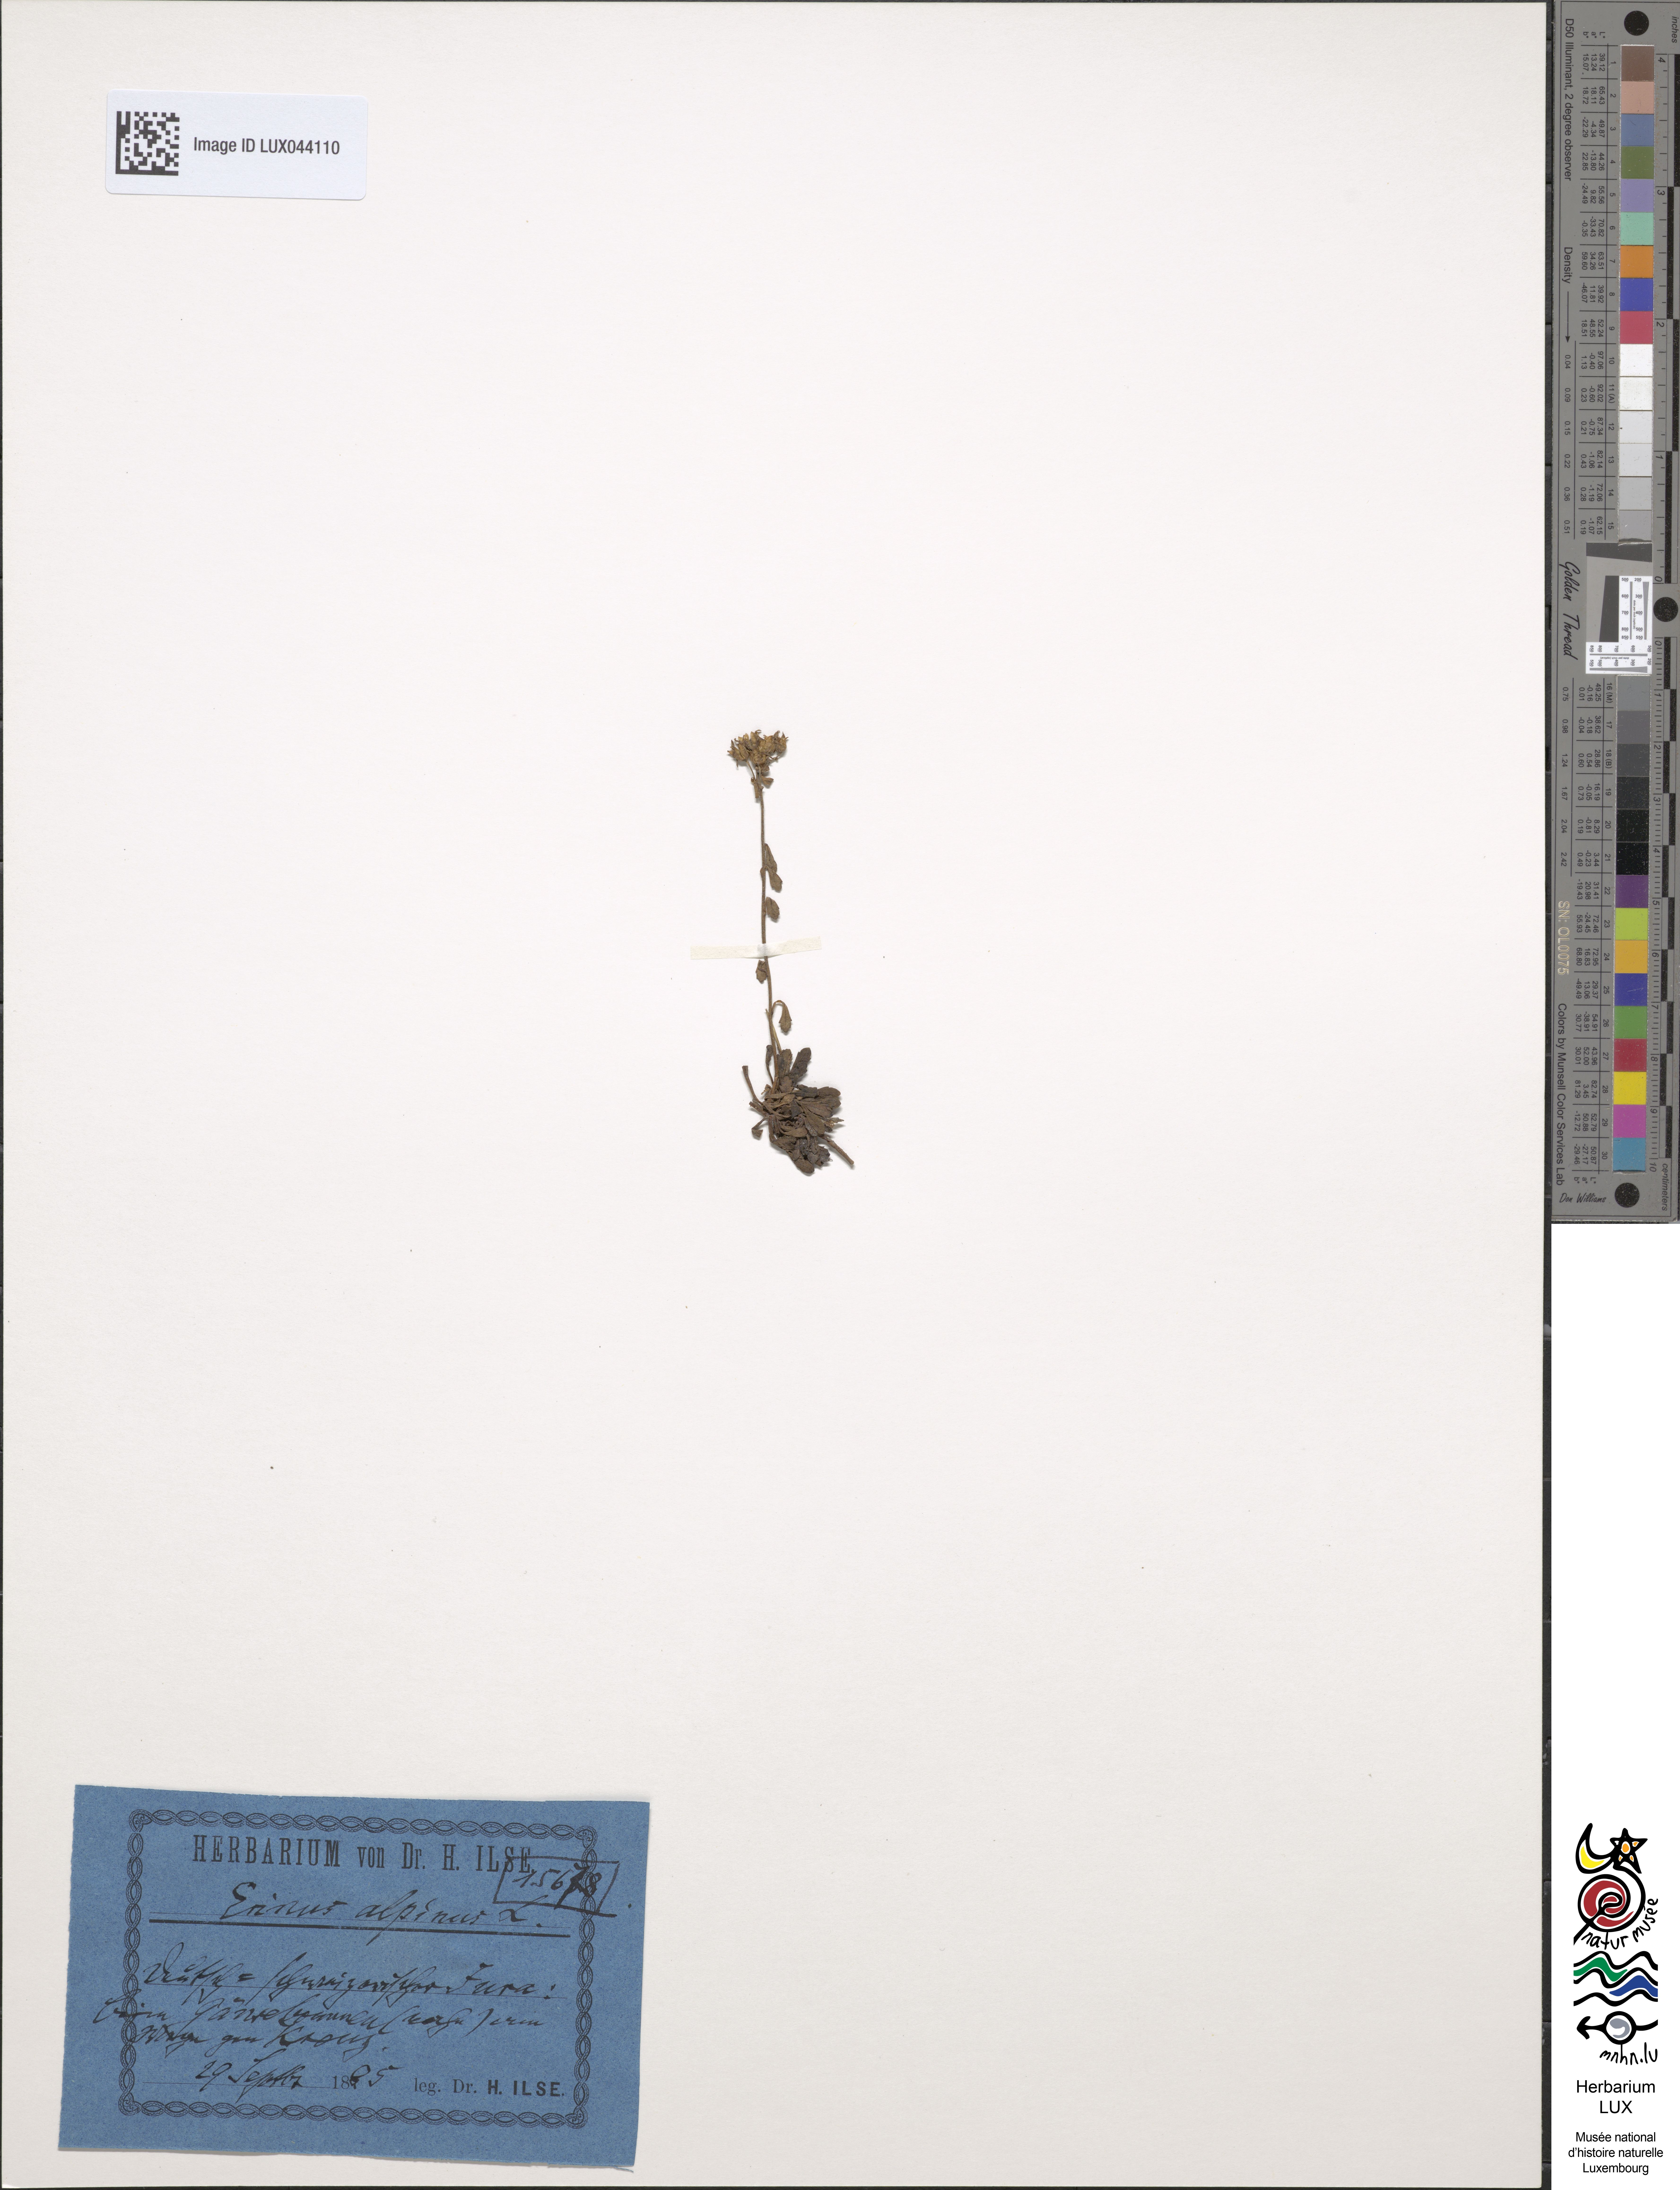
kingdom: Plantae
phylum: Tracheophyta
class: Magnoliopsida
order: Lamiales
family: Plantaginaceae
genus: Erinus
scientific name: Erinus alpinus
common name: Fairy foxglove
